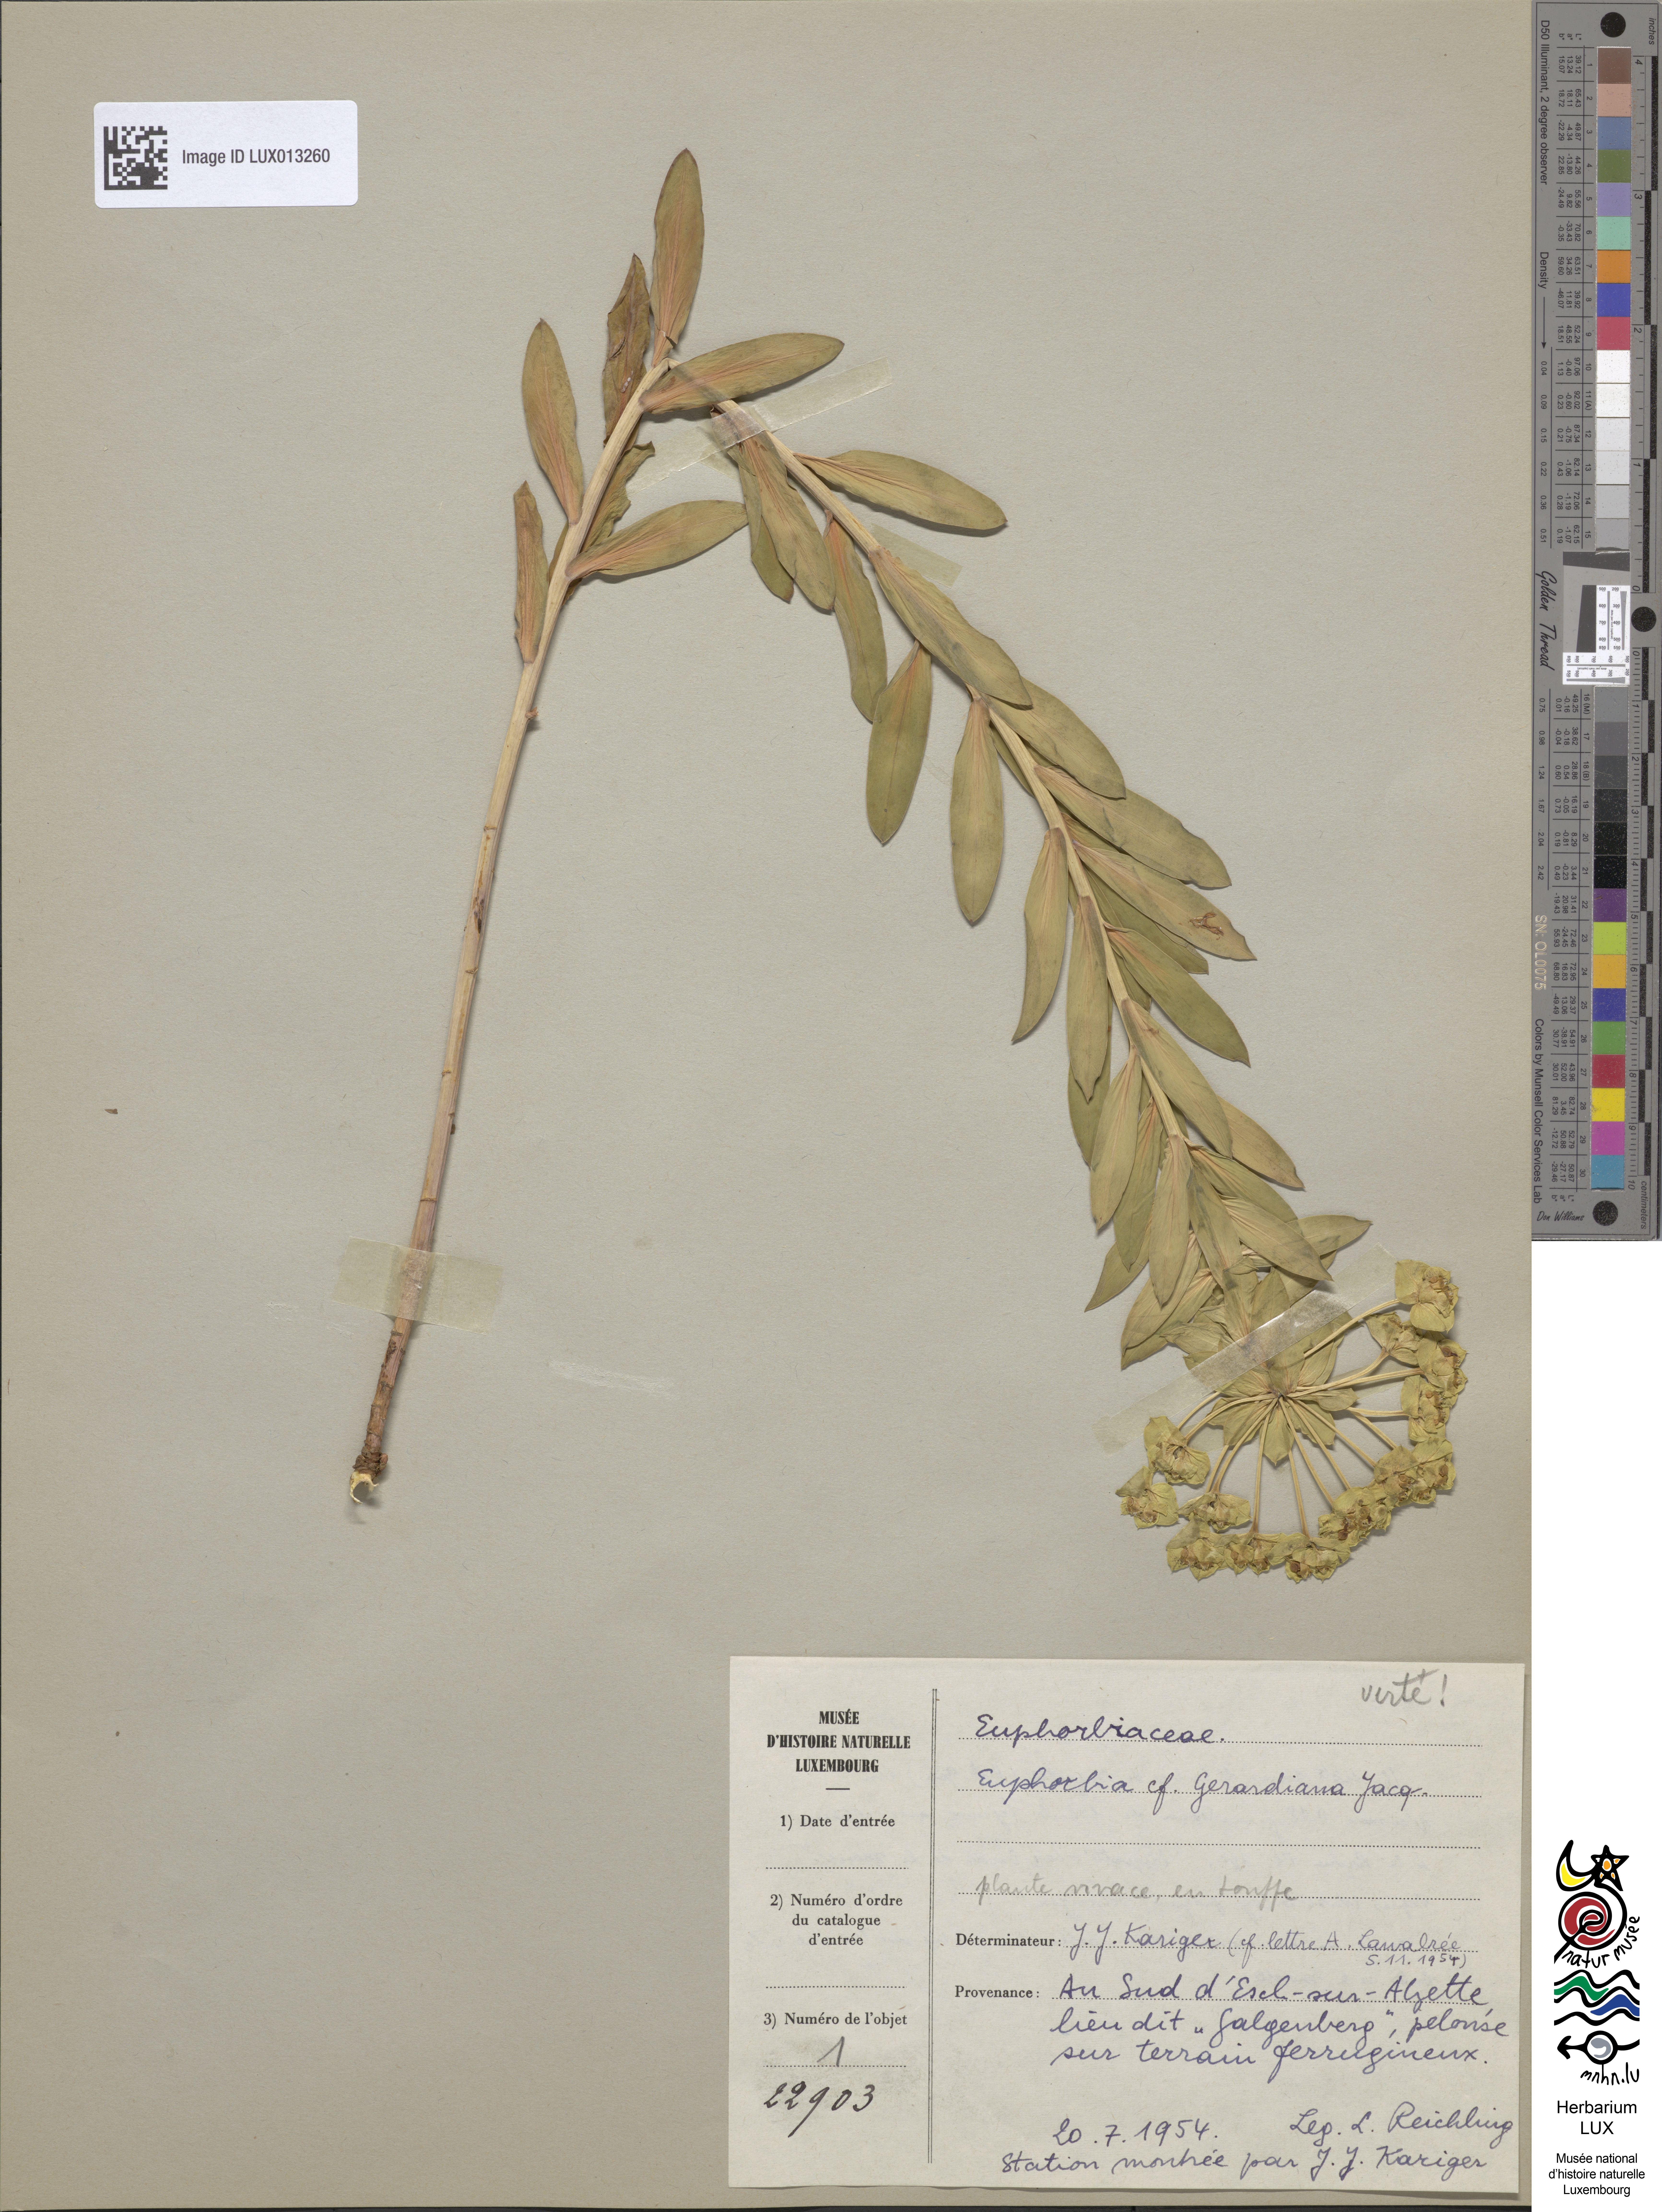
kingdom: Plantae
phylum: Tracheophyta
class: Magnoliopsida
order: Malpighiales
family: Euphorbiaceae
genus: Euphorbia
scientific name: Euphorbia seguieriana
